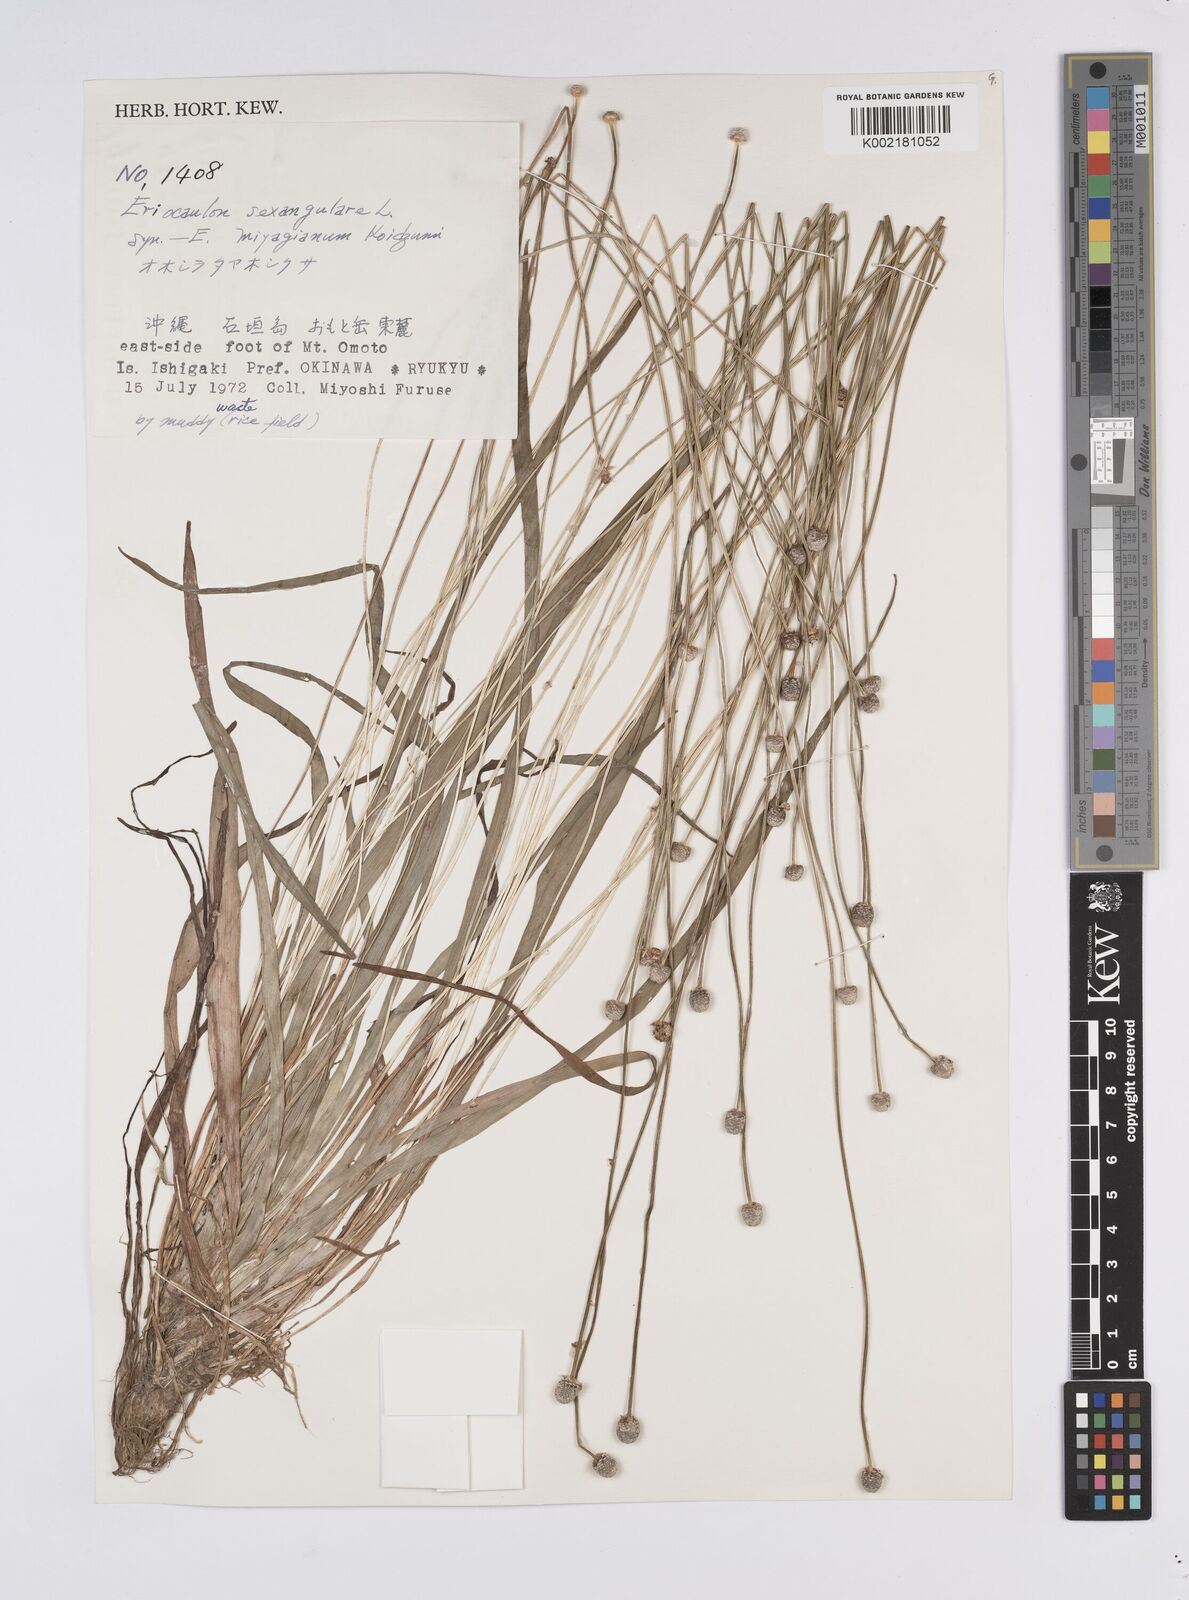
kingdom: Plantae
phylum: Tracheophyta
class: Liliopsida
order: Poales
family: Eriocaulaceae
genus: Eriocaulon
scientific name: Eriocaulon sexangulare
